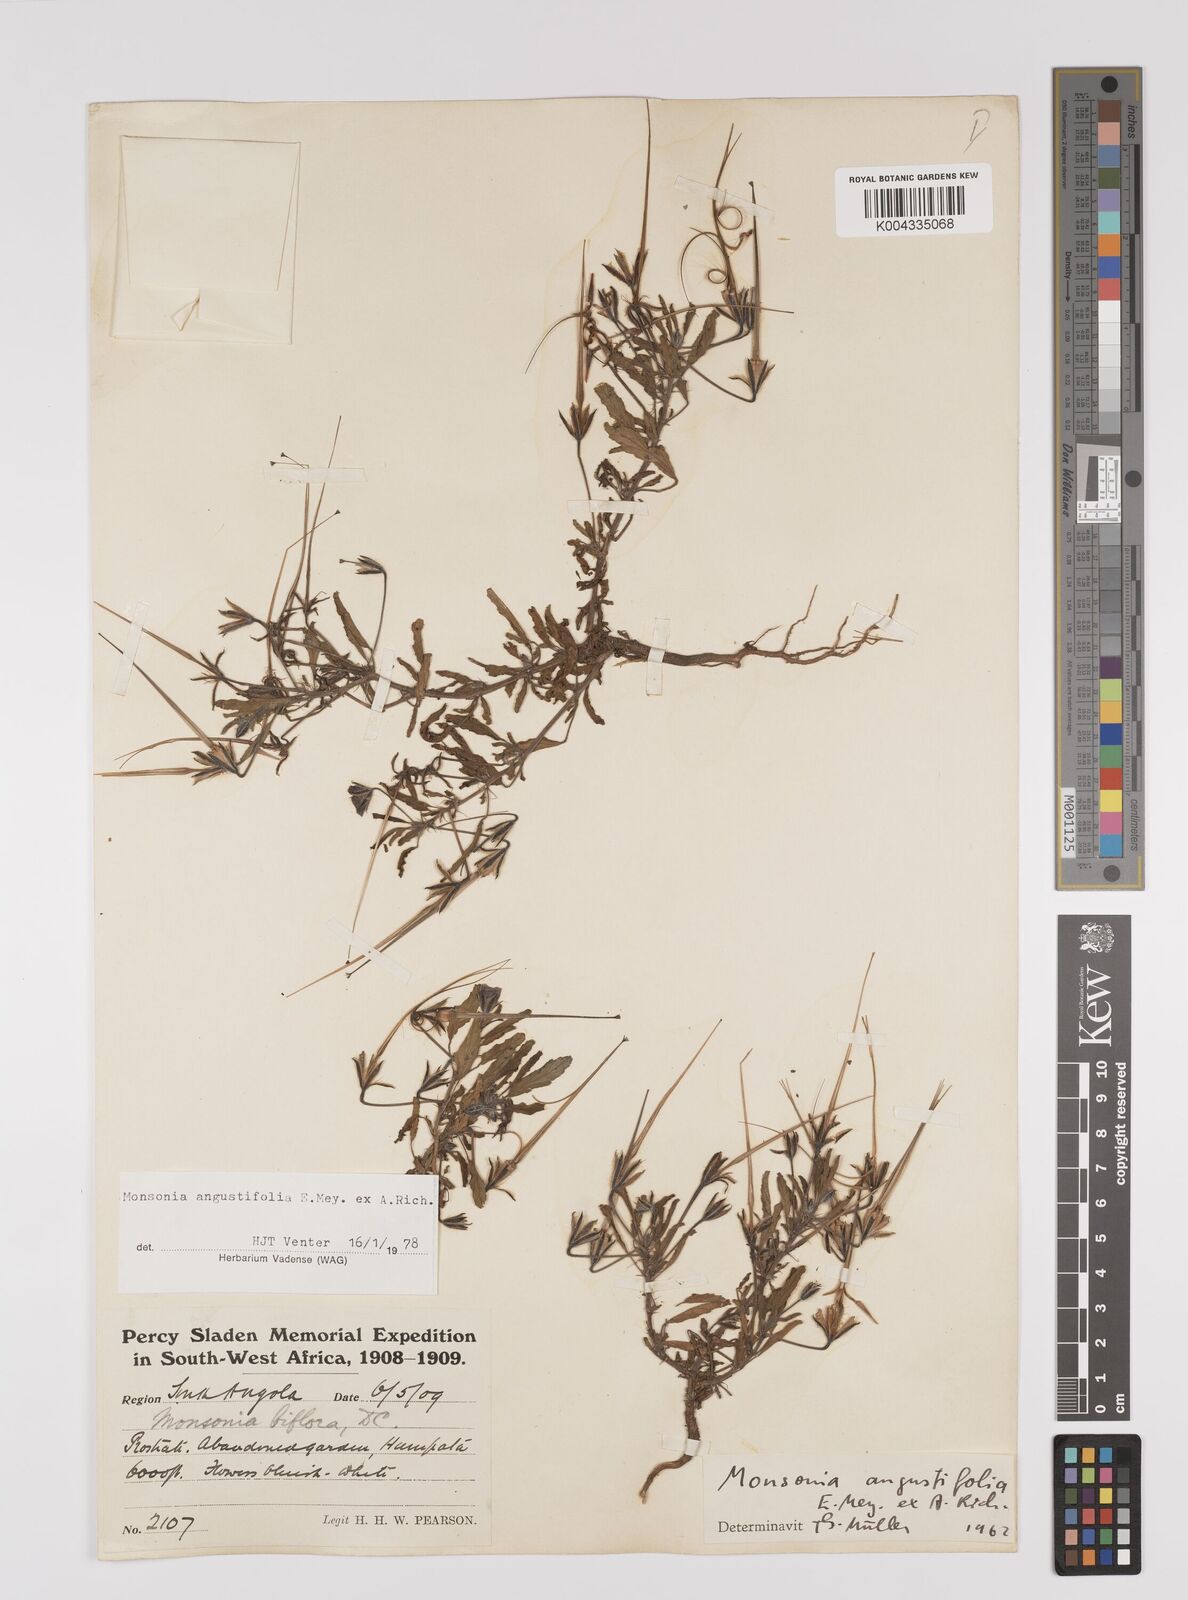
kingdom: Plantae
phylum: Tracheophyta
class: Magnoliopsida
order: Geraniales
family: Geraniaceae
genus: Monsonia
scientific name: Monsonia angustifolia
